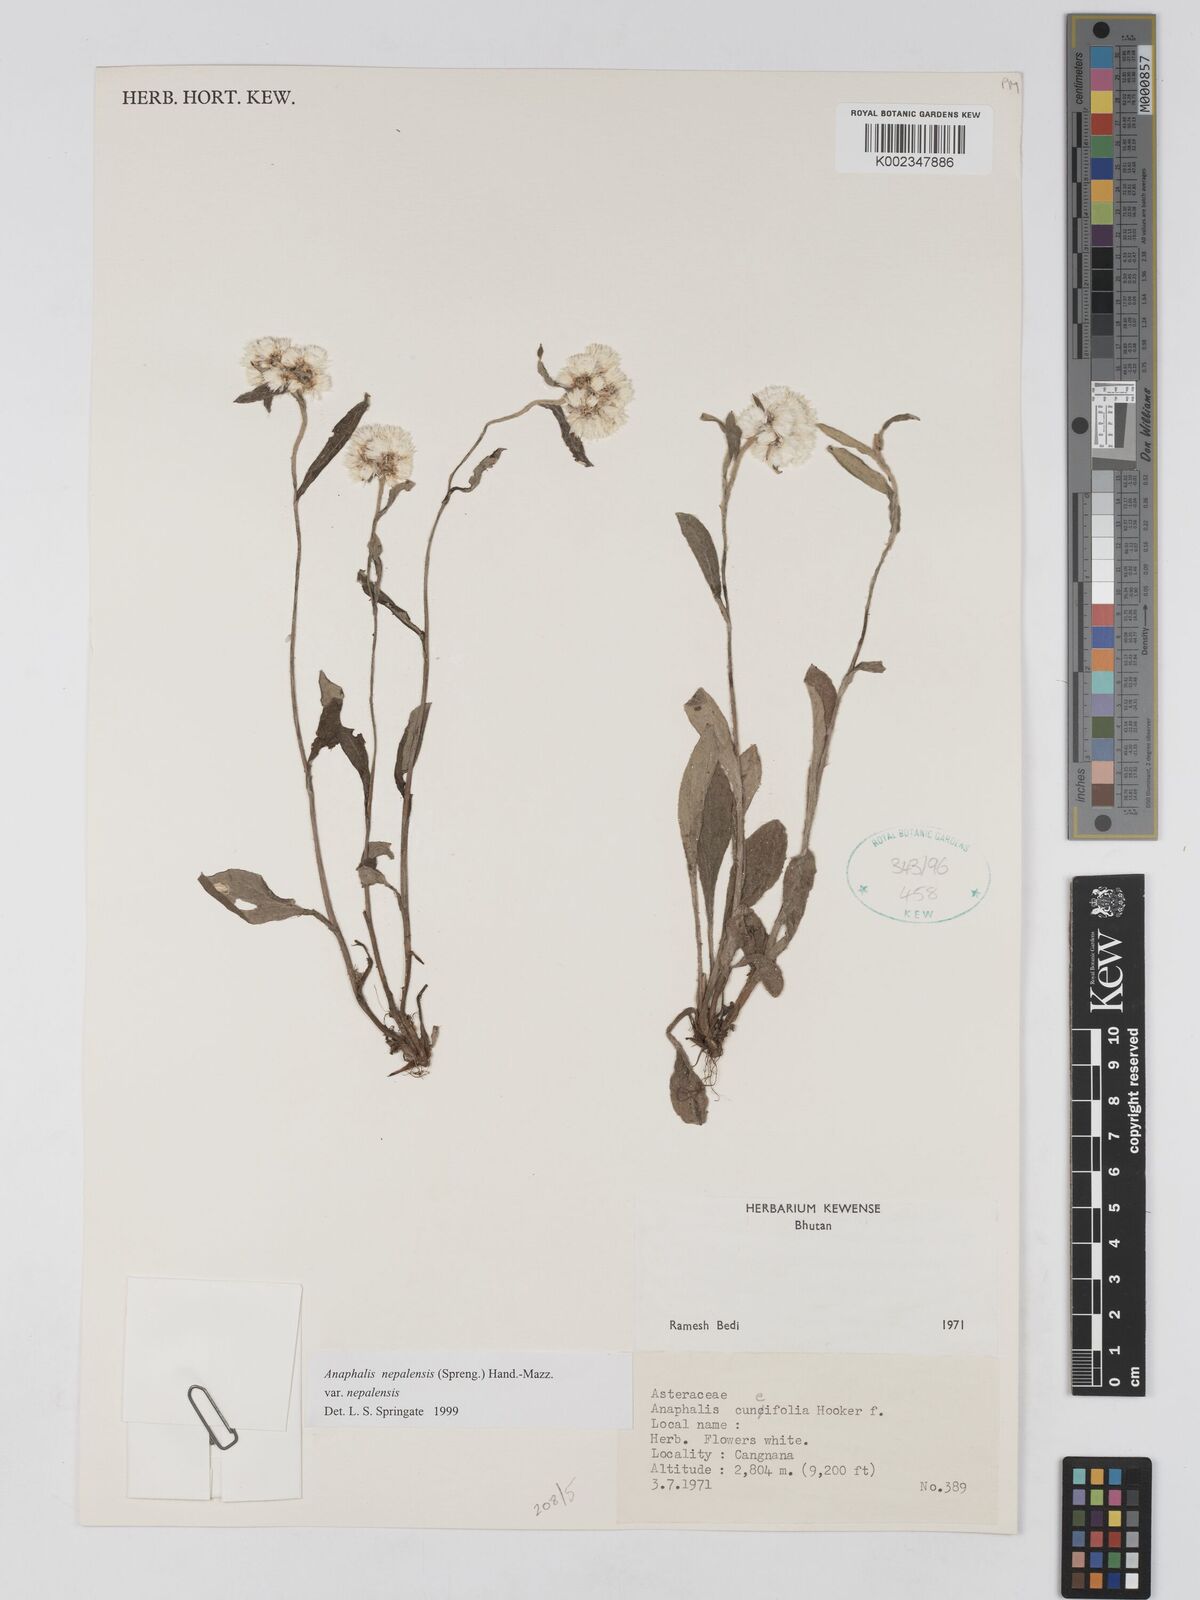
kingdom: Plantae
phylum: Tracheophyta
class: Magnoliopsida
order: Asterales
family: Asteraceae
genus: Anaphalis
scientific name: Anaphalis nepalensis
